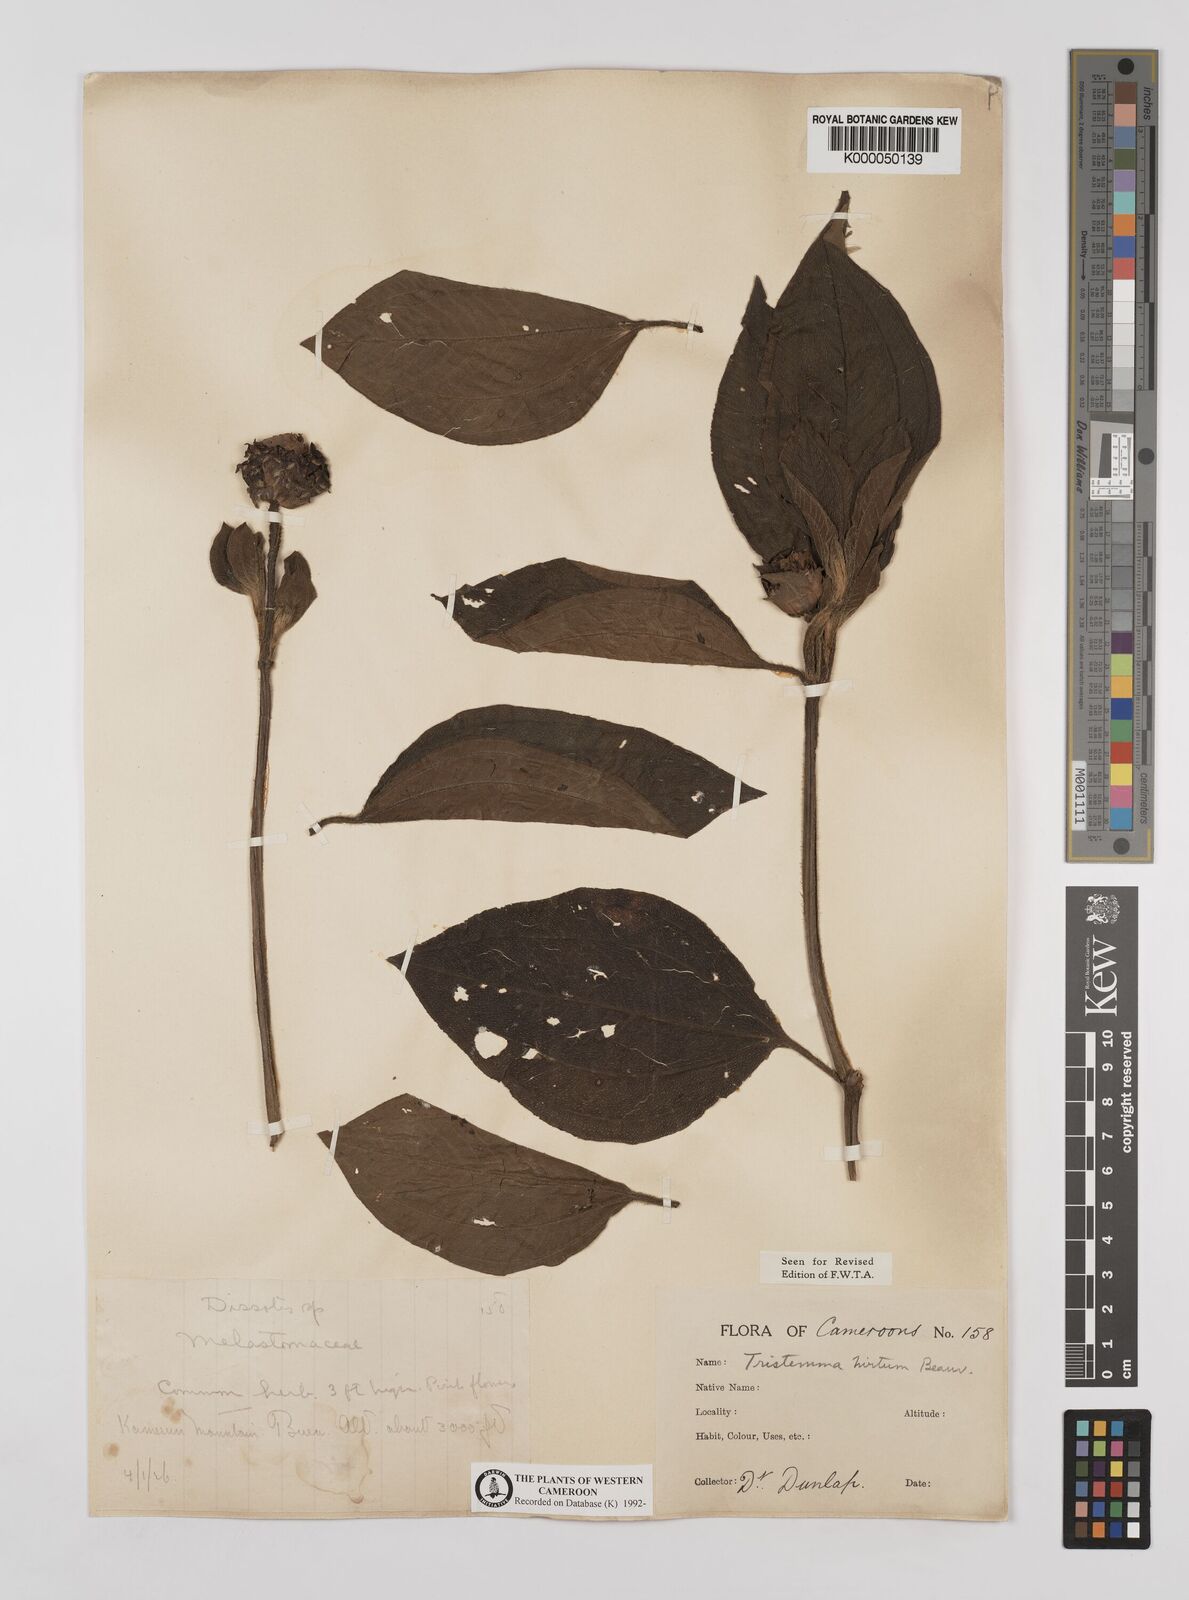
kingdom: Plantae
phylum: Tracheophyta
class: Magnoliopsida
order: Myrtales
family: Melastomataceae
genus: Tristemma
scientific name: Tristemma
